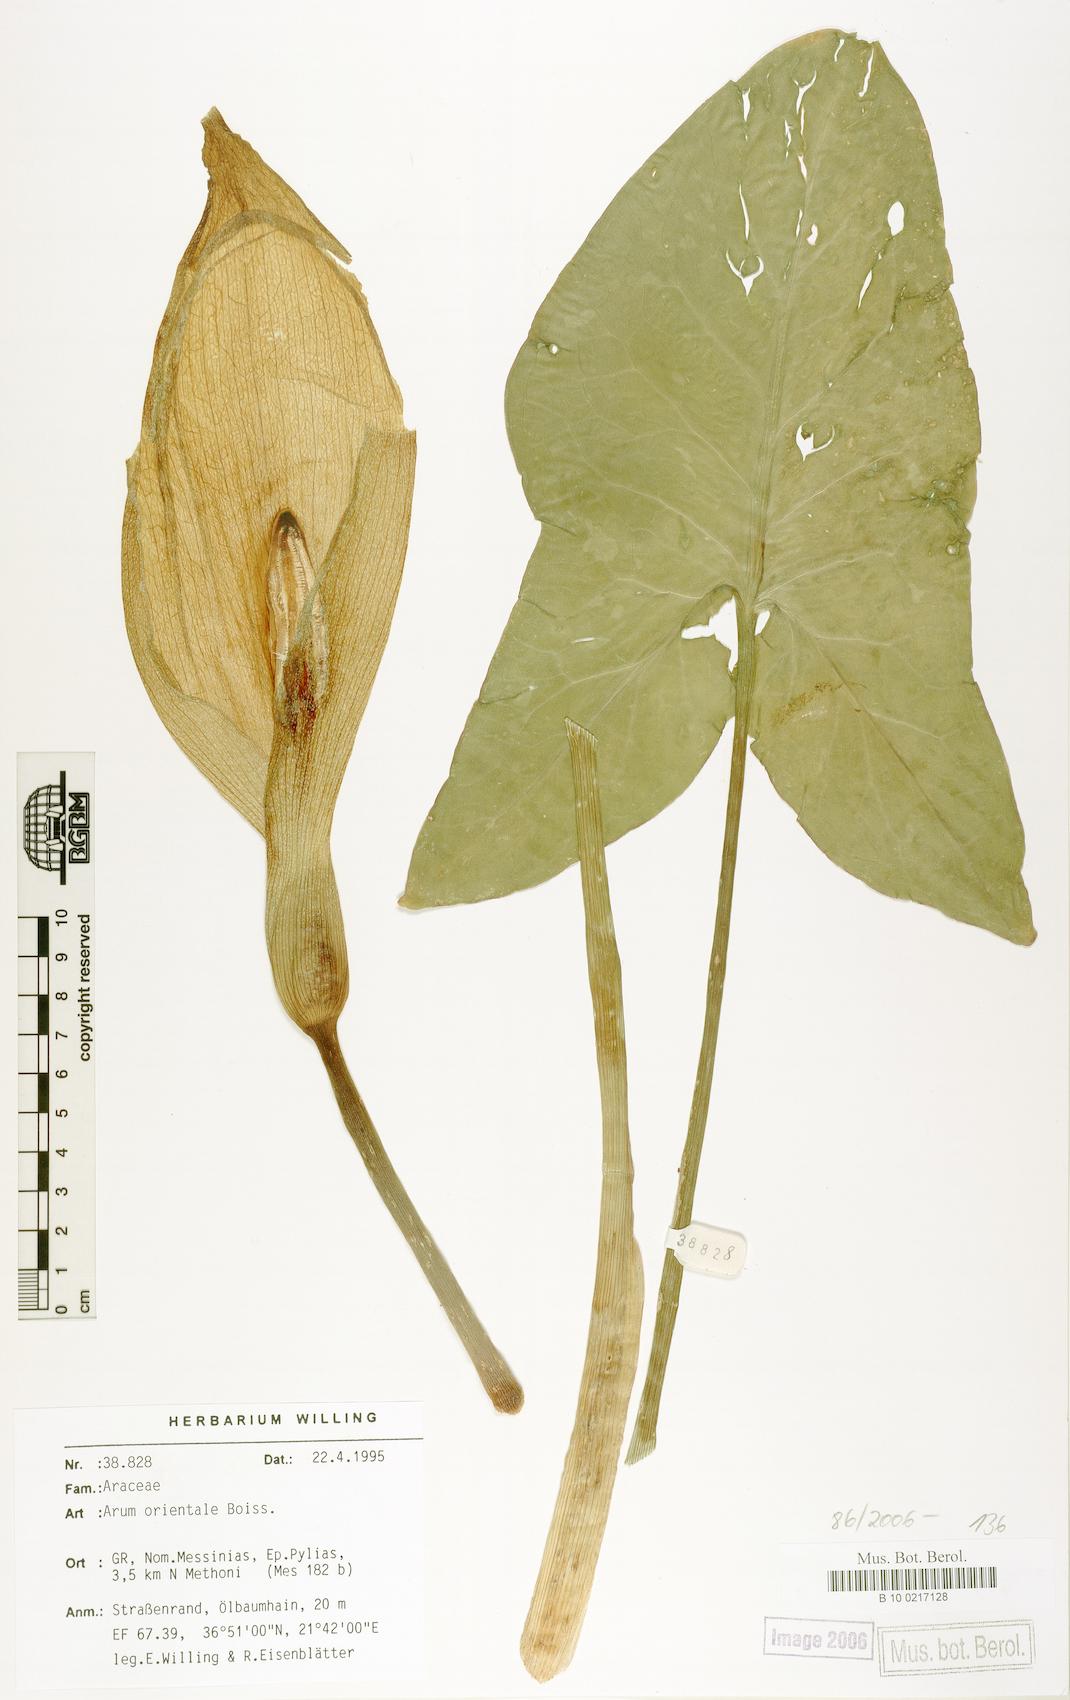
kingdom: Plantae
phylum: Tracheophyta
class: Liliopsida
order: Alismatales
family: Araceae
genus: Arum
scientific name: Arum orientale
